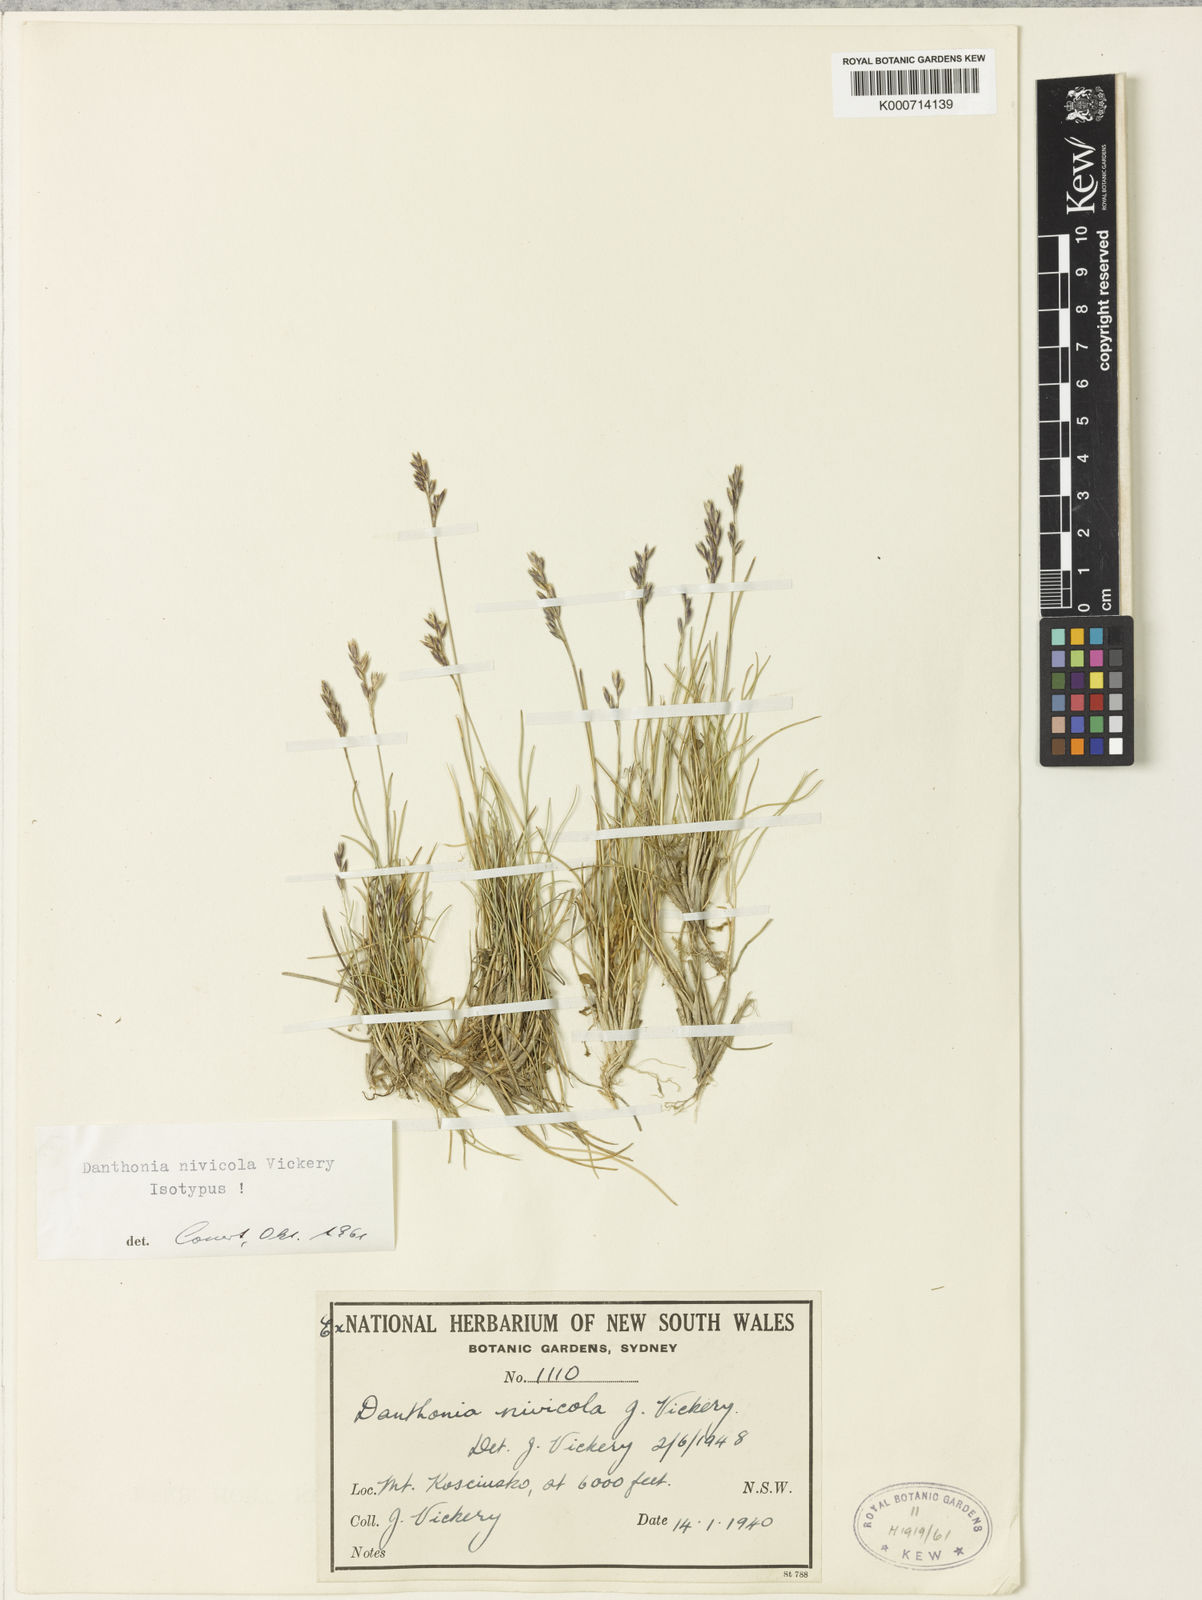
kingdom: Plantae
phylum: Tracheophyta
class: Liliopsida
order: Poales
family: Poaceae
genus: Rytidosperma
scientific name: Rytidosperma nivicola
